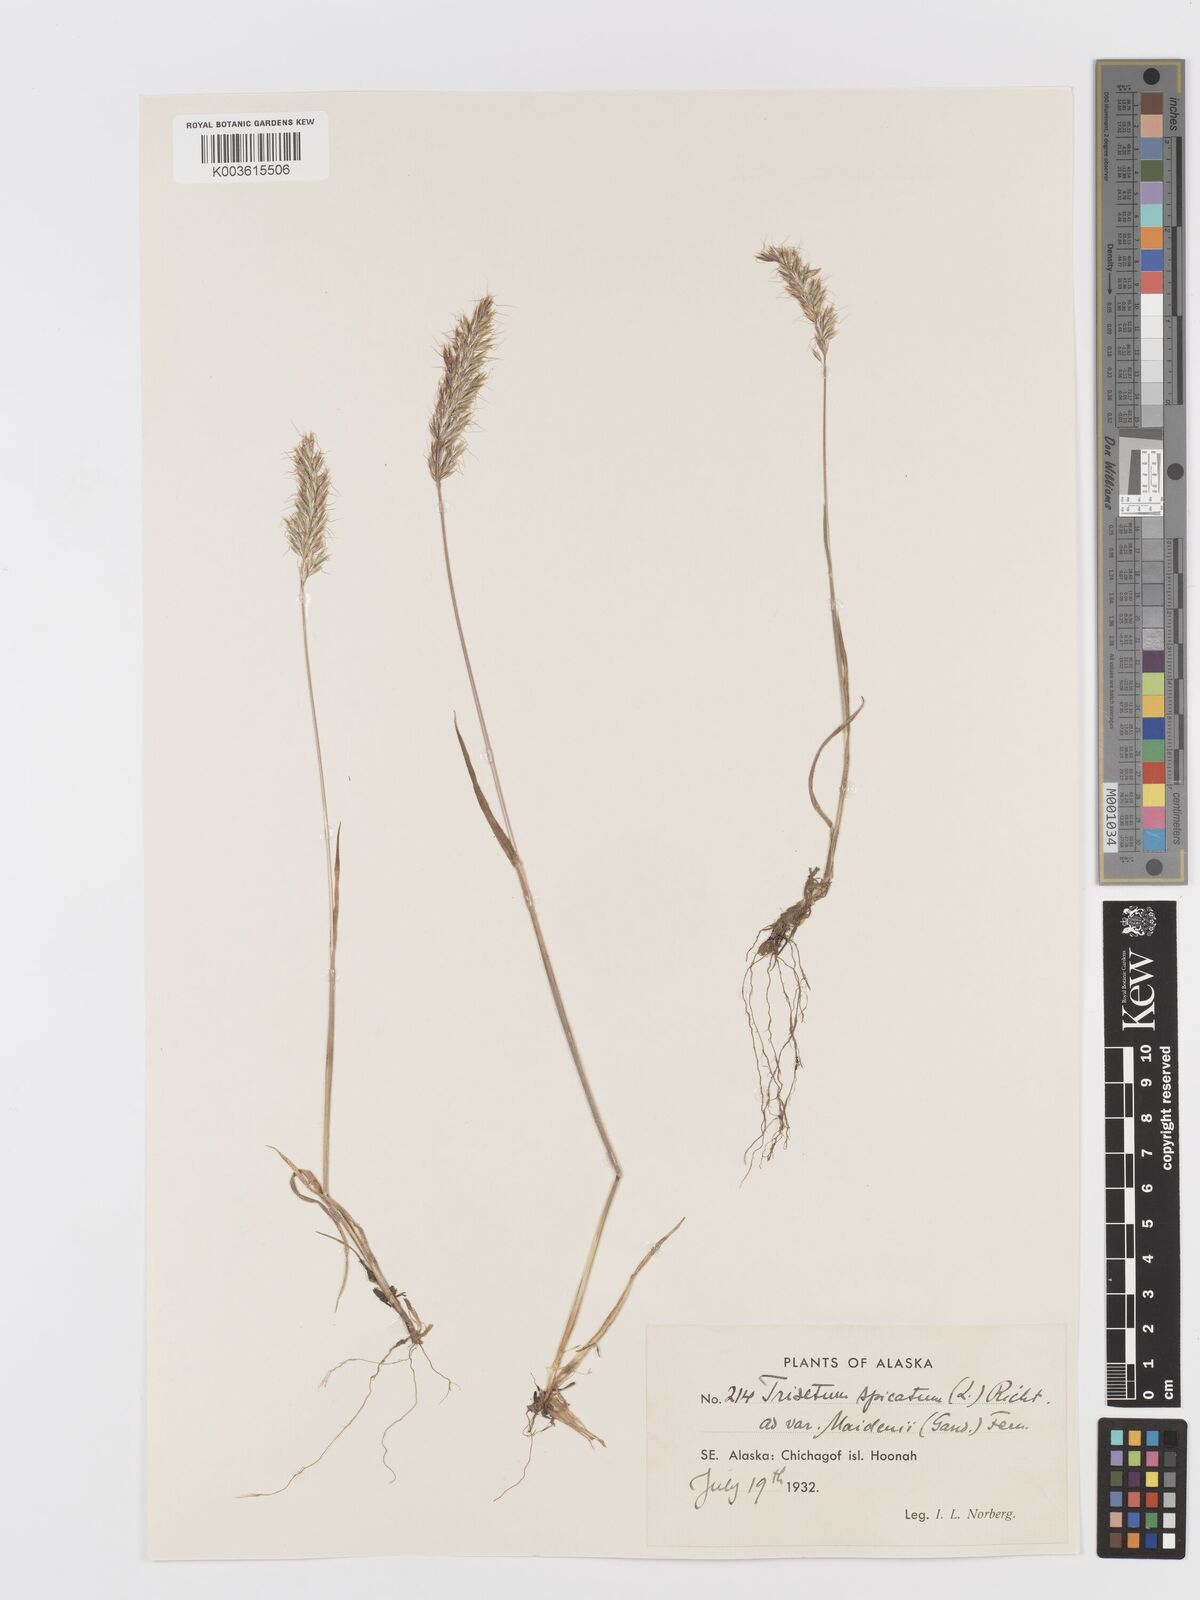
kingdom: Plantae
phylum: Tracheophyta
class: Liliopsida
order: Poales
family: Poaceae
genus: Koeleria
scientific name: Koeleria spicata
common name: Mountain trisetum
